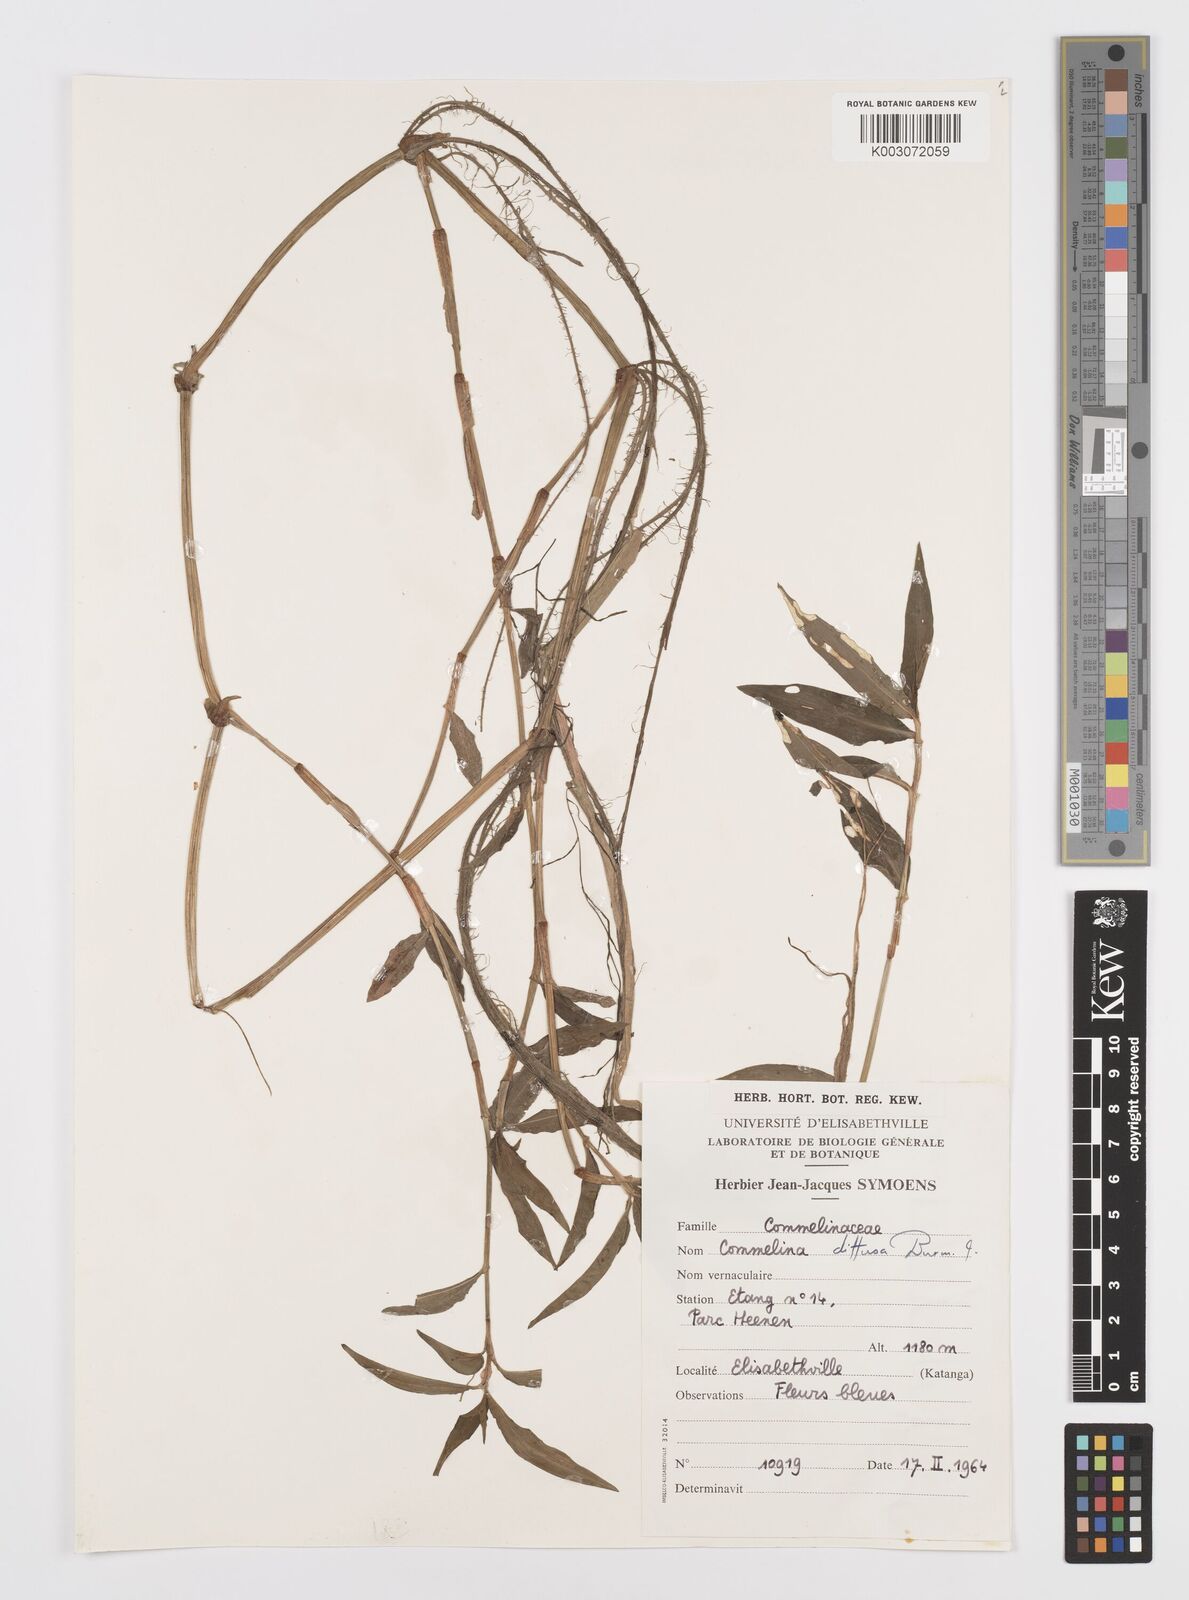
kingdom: Plantae
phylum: Tracheophyta
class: Liliopsida
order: Commelinales
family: Commelinaceae
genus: Commelina
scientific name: Commelina diffusa
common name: Climbing dayflower
